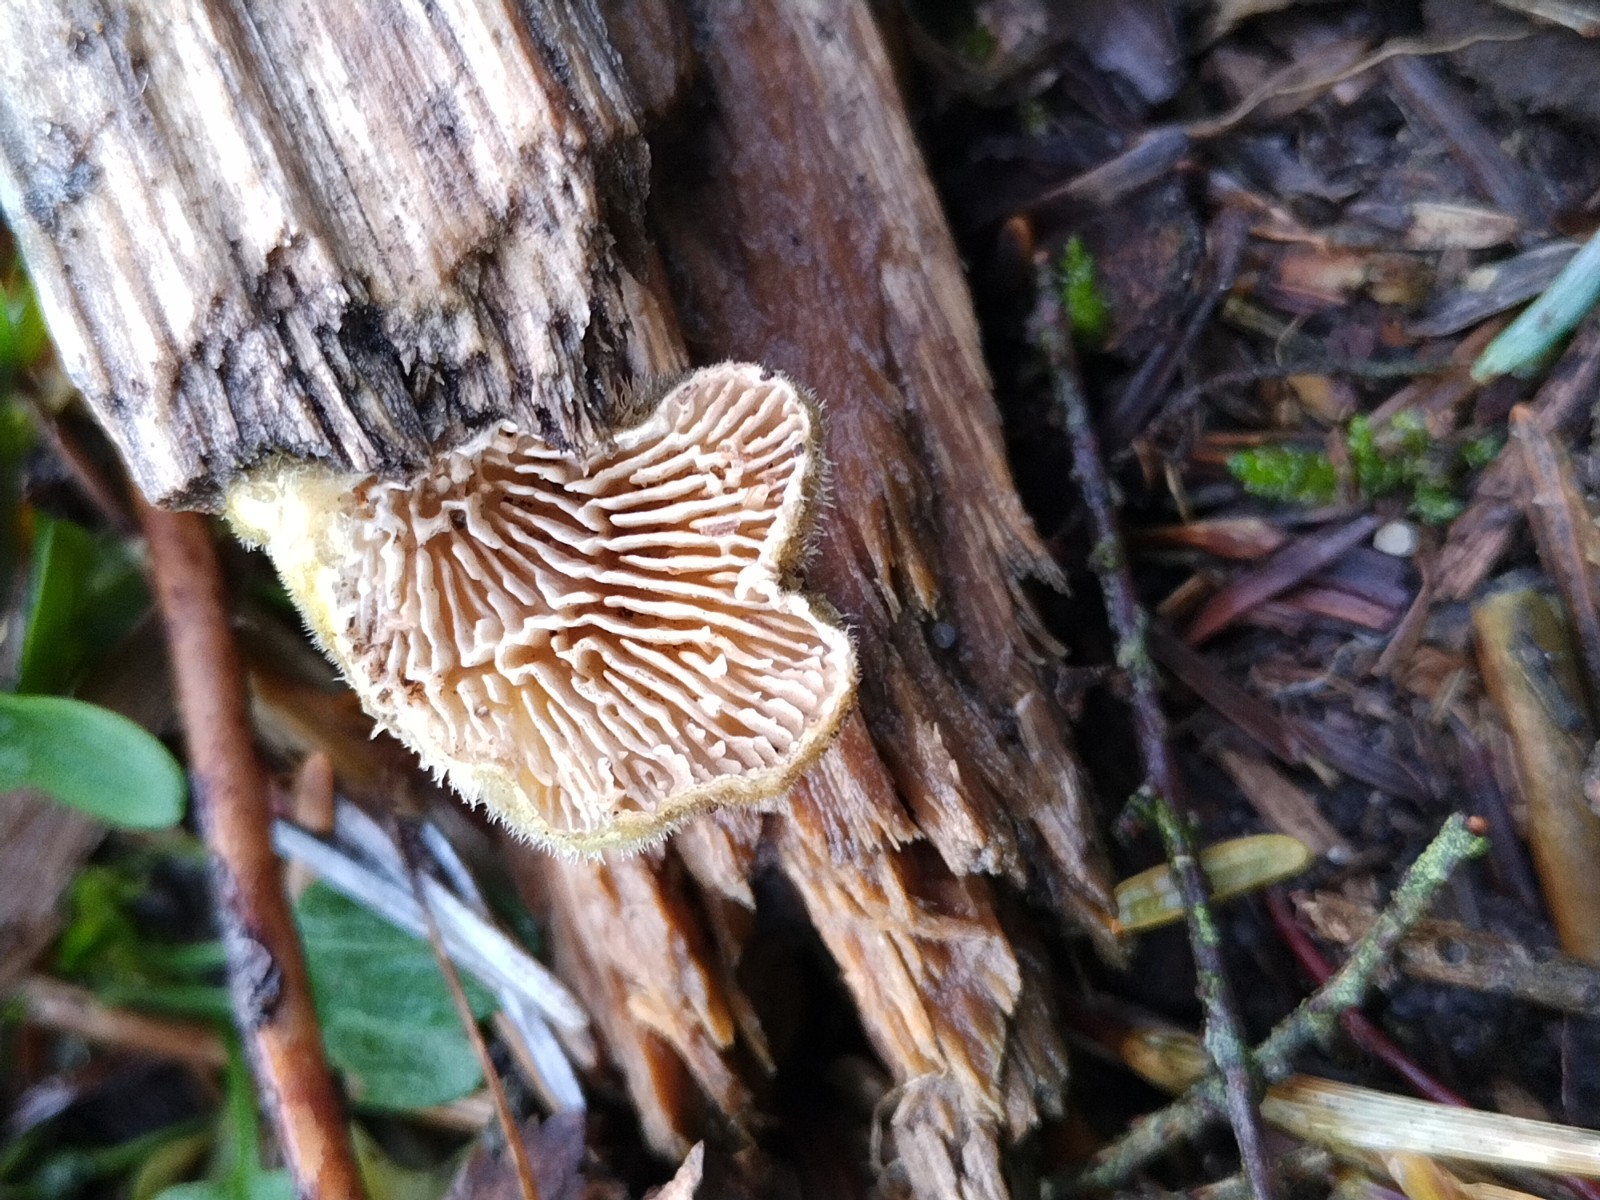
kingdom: Fungi
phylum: Basidiomycota
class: Agaricomycetes
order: Agaricales
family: Schizophyllaceae
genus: Schizophyllum
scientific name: Schizophyllum commune
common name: kløvblad
